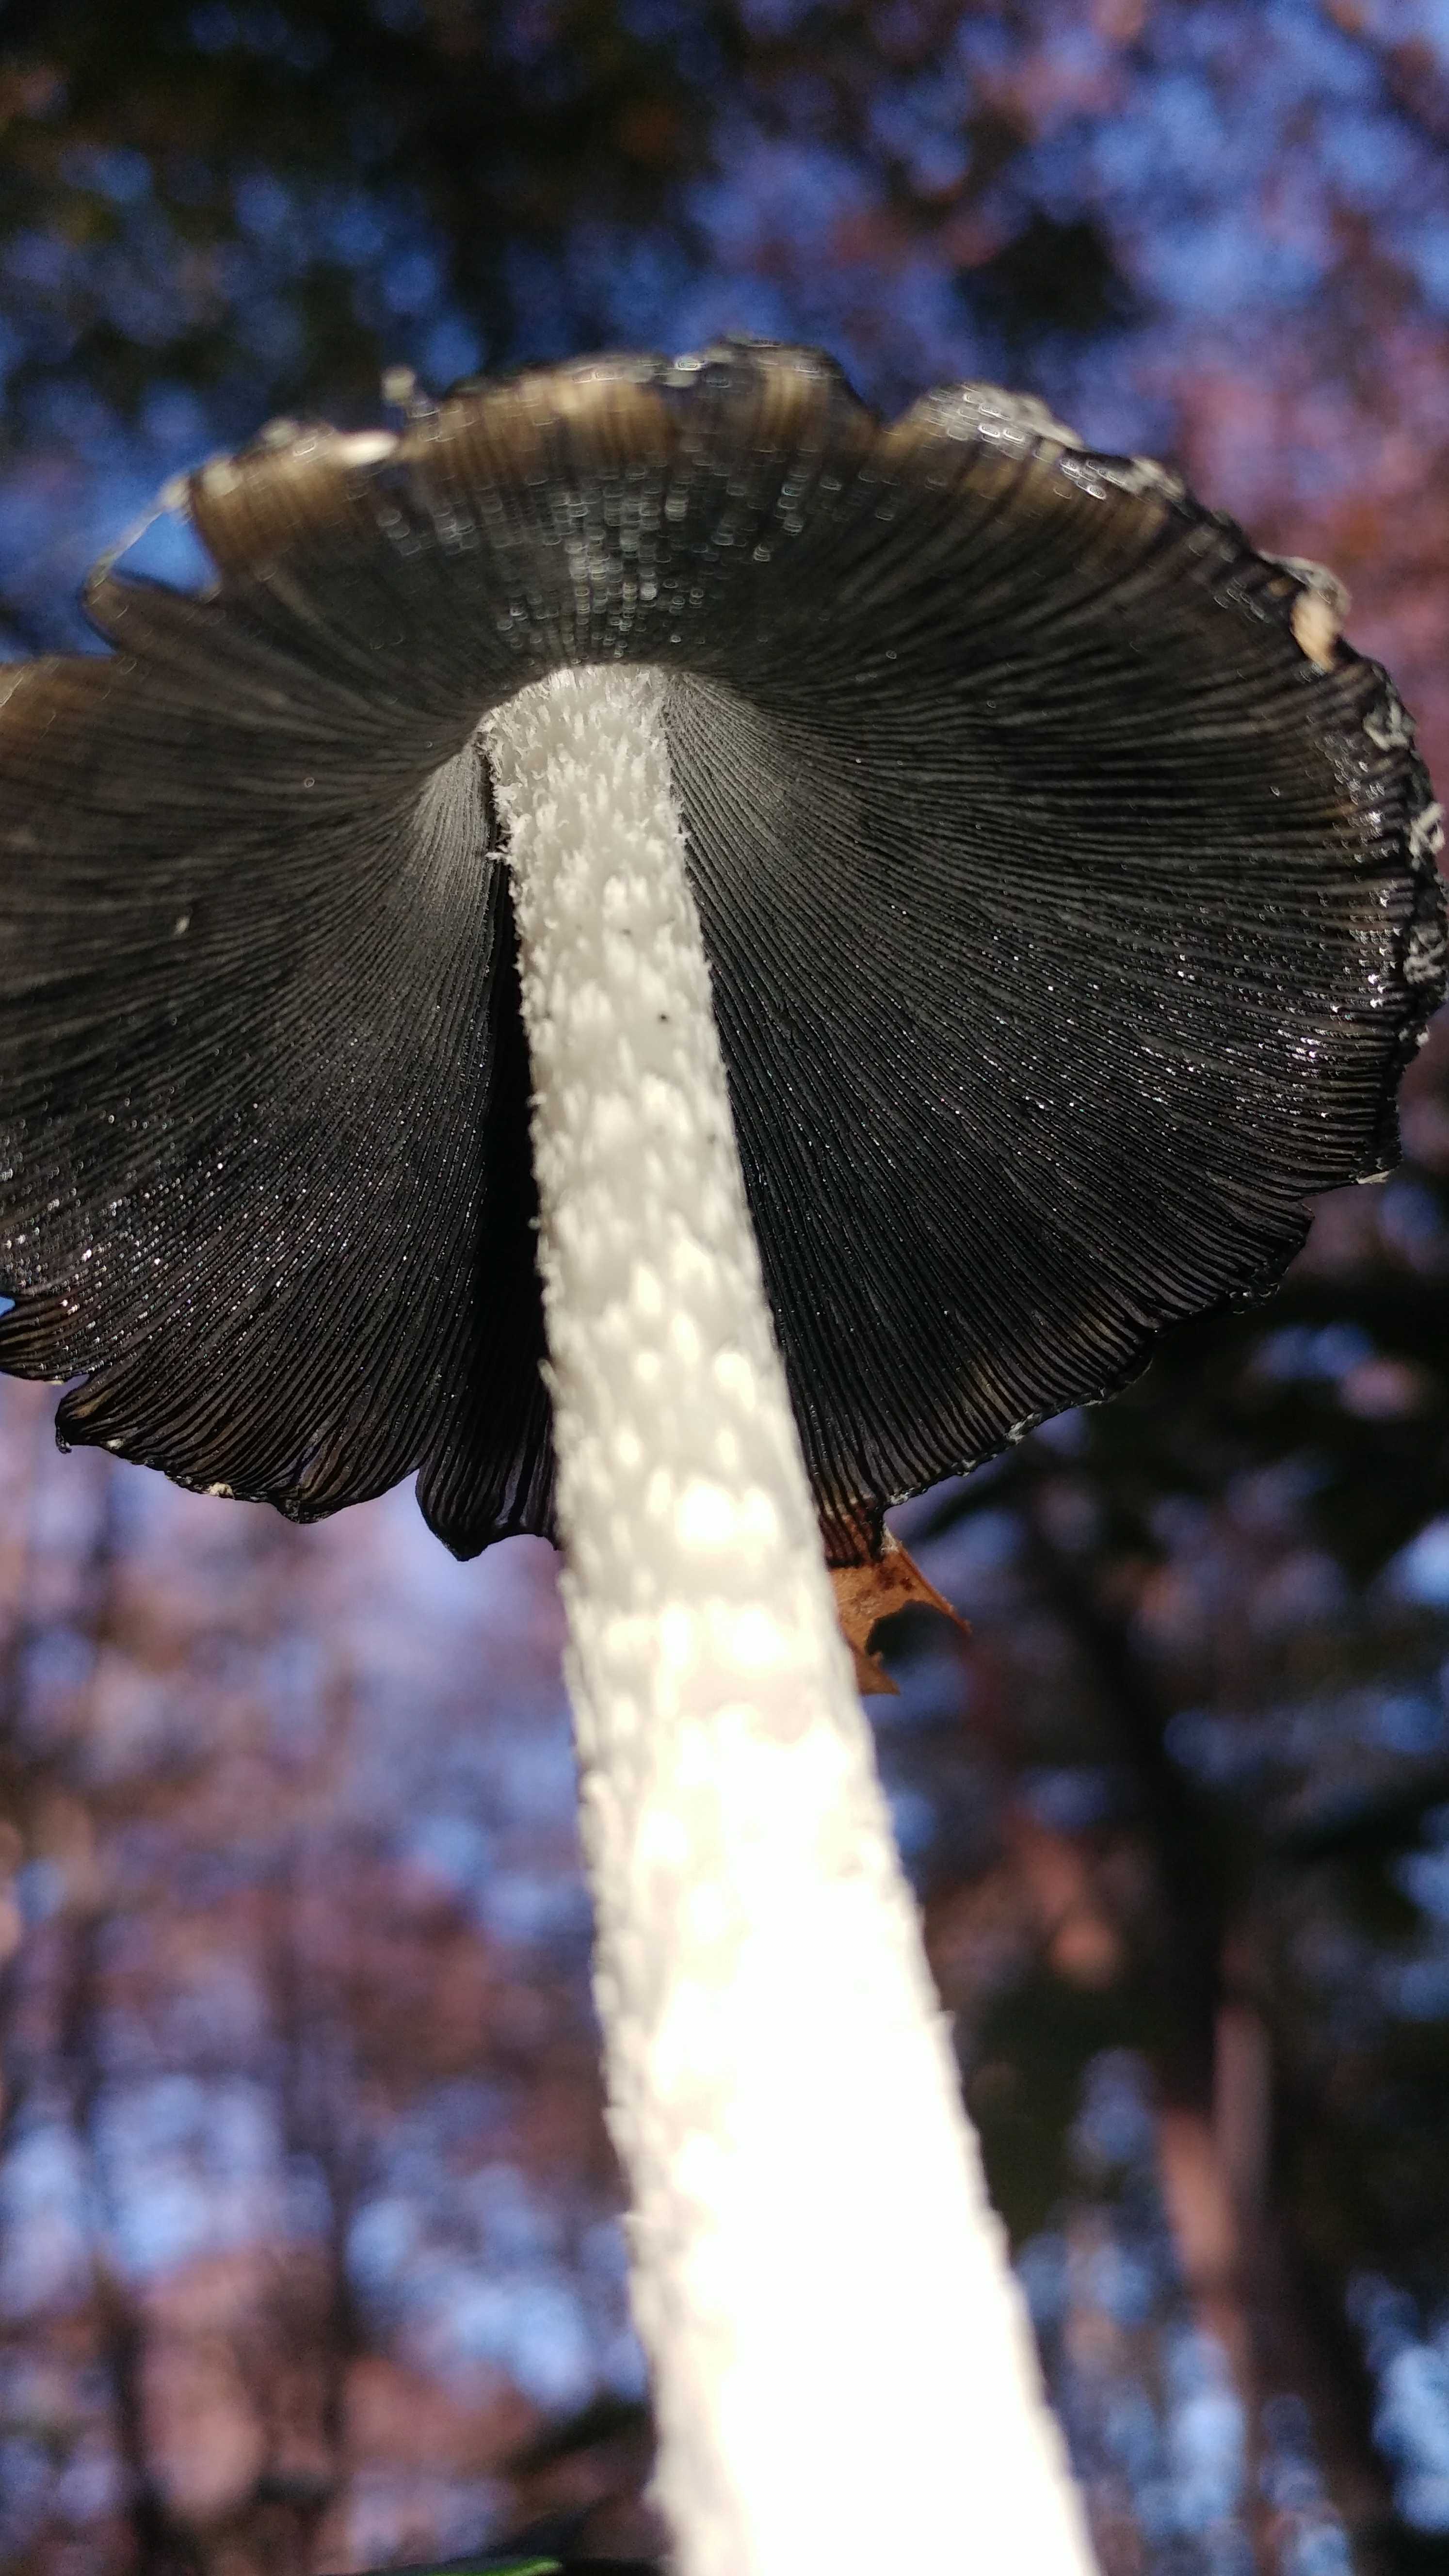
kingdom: Fungi
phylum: Basidiomycota
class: Agaricomycetes
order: Agaricales
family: Psathyrellaceae
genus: Coprinopsis
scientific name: Coprinopsis picacea
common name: skade-blækhat
